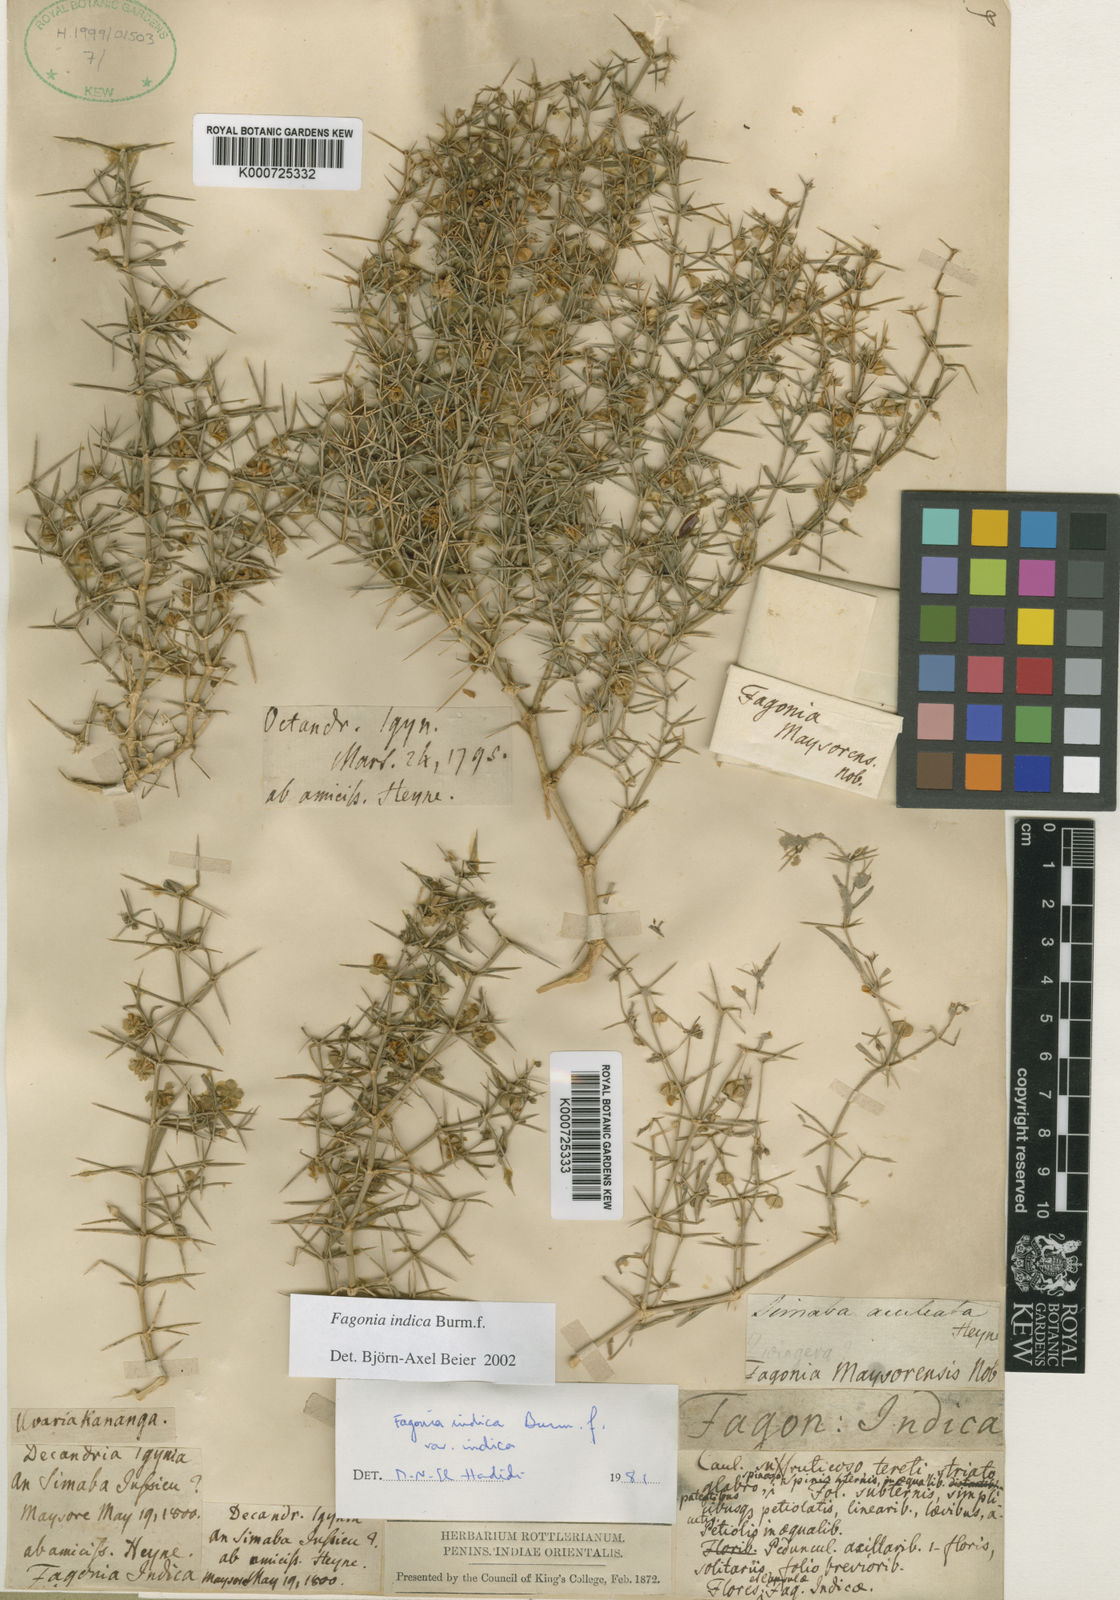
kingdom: Plantae
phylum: Tracheophyta
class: Magnoliopsida
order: Zygophyllales
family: Zygophyllaceae
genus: Fagonia
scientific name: Fagonia indica
